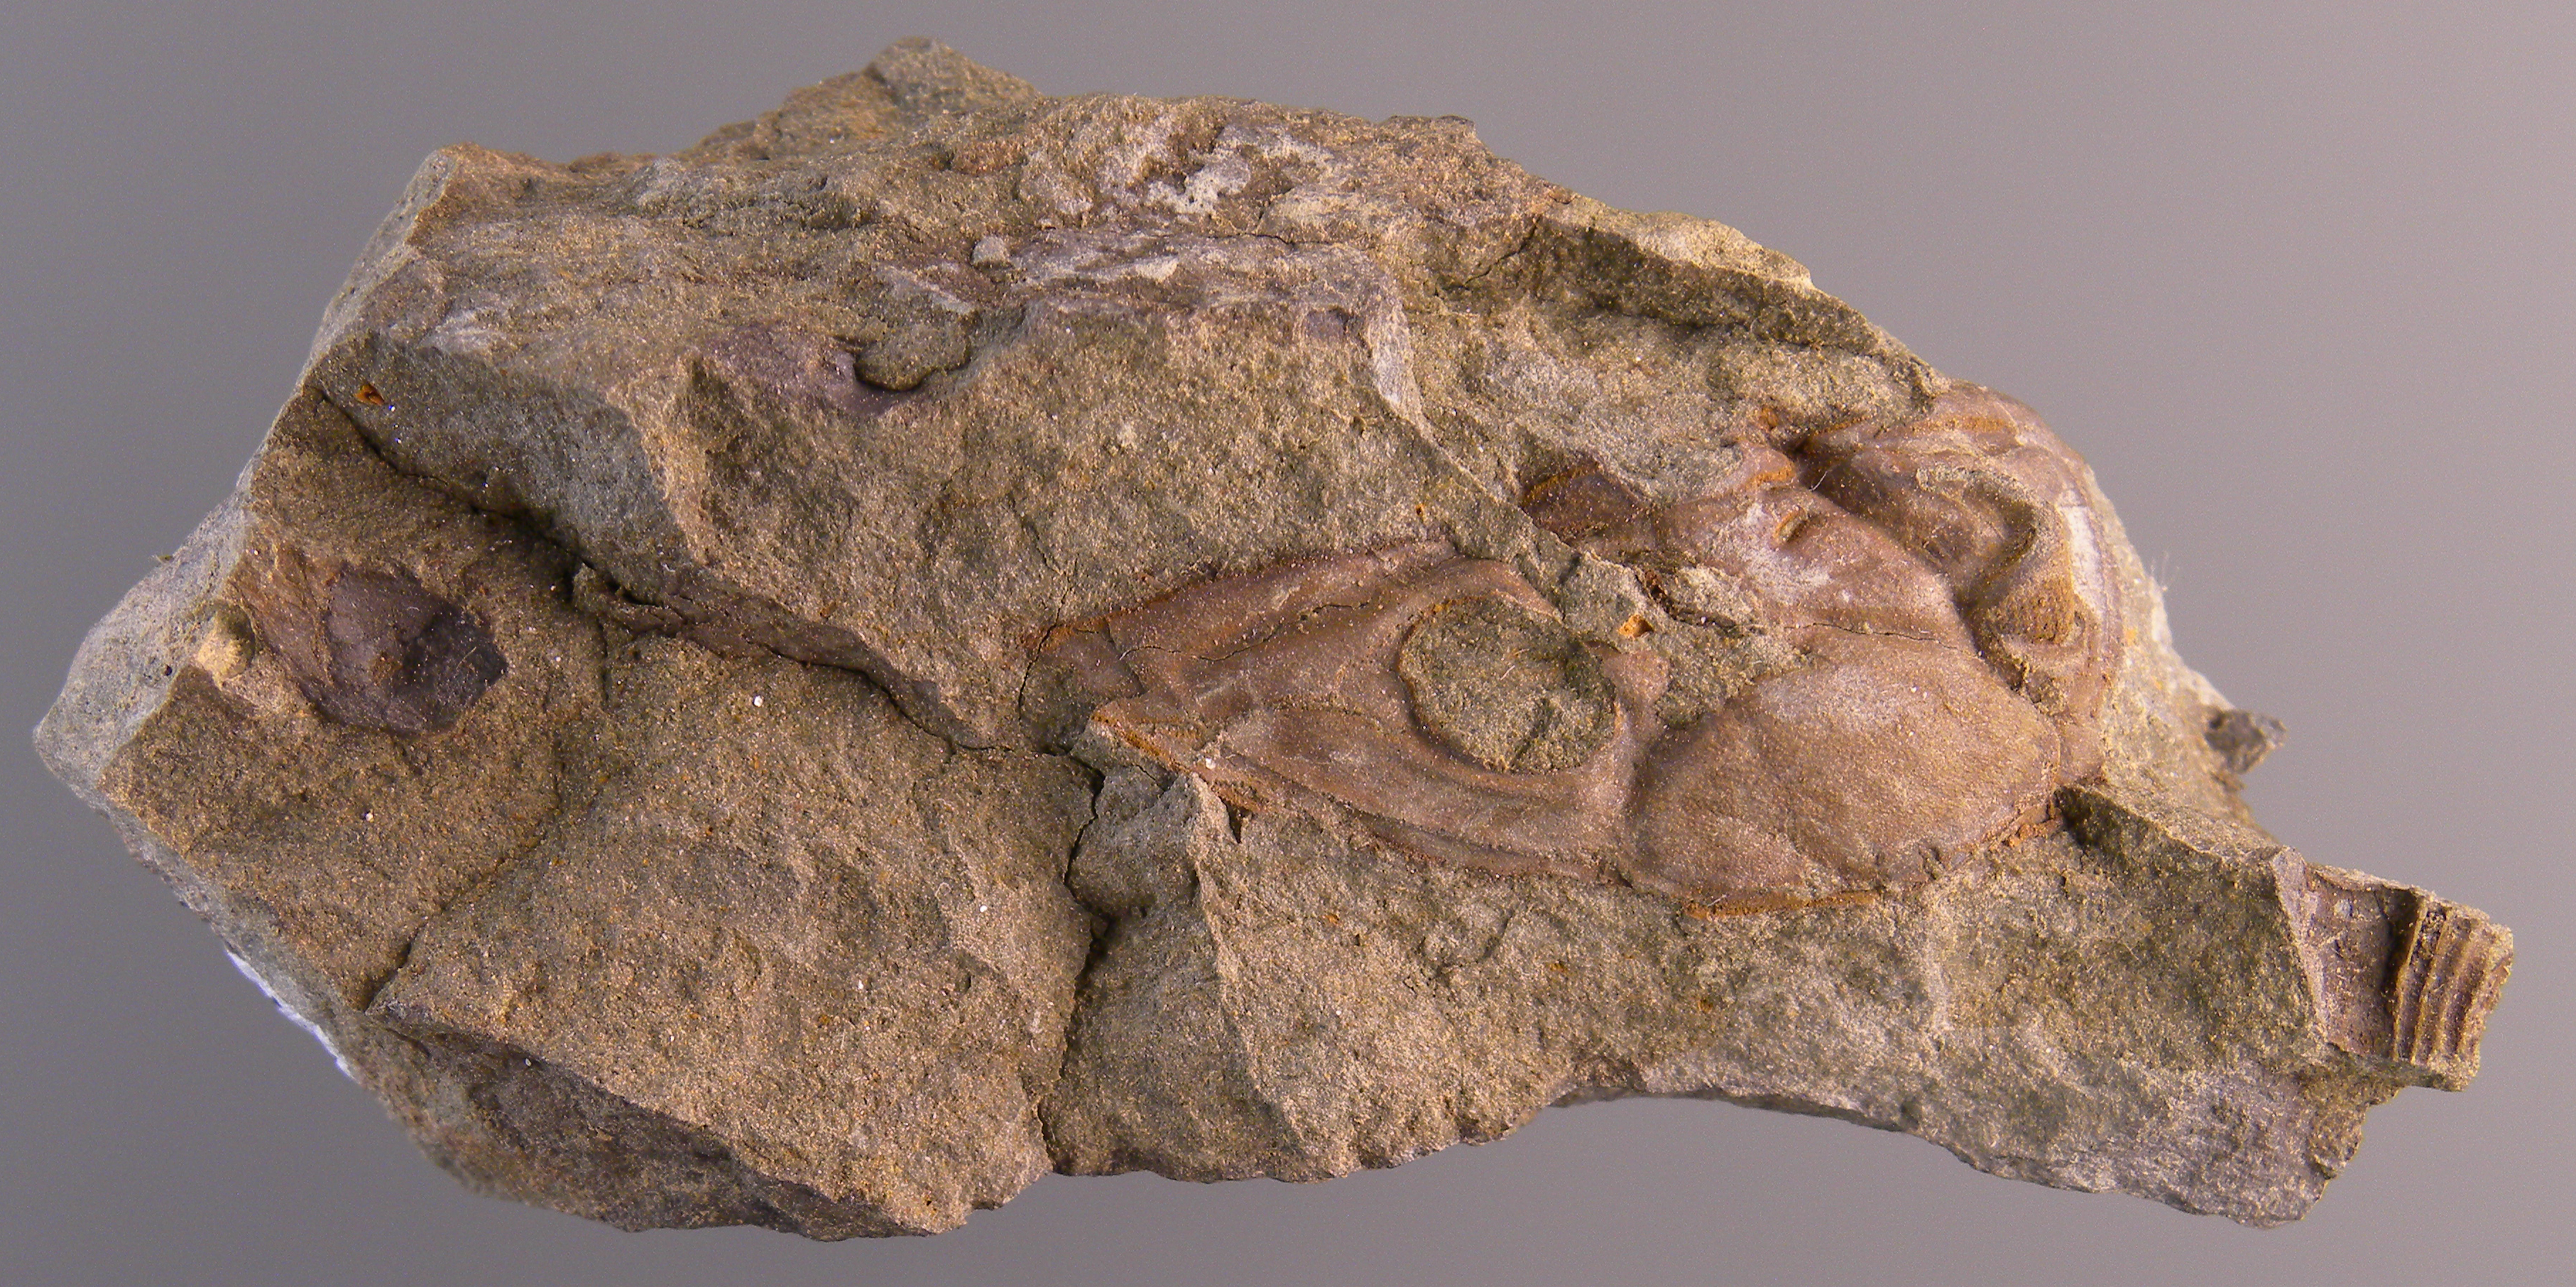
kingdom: Animalia
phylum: Arthropoda
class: Trilobita
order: Phacopida
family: Acastidae
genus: Tolkienia
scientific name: Tolkienia
